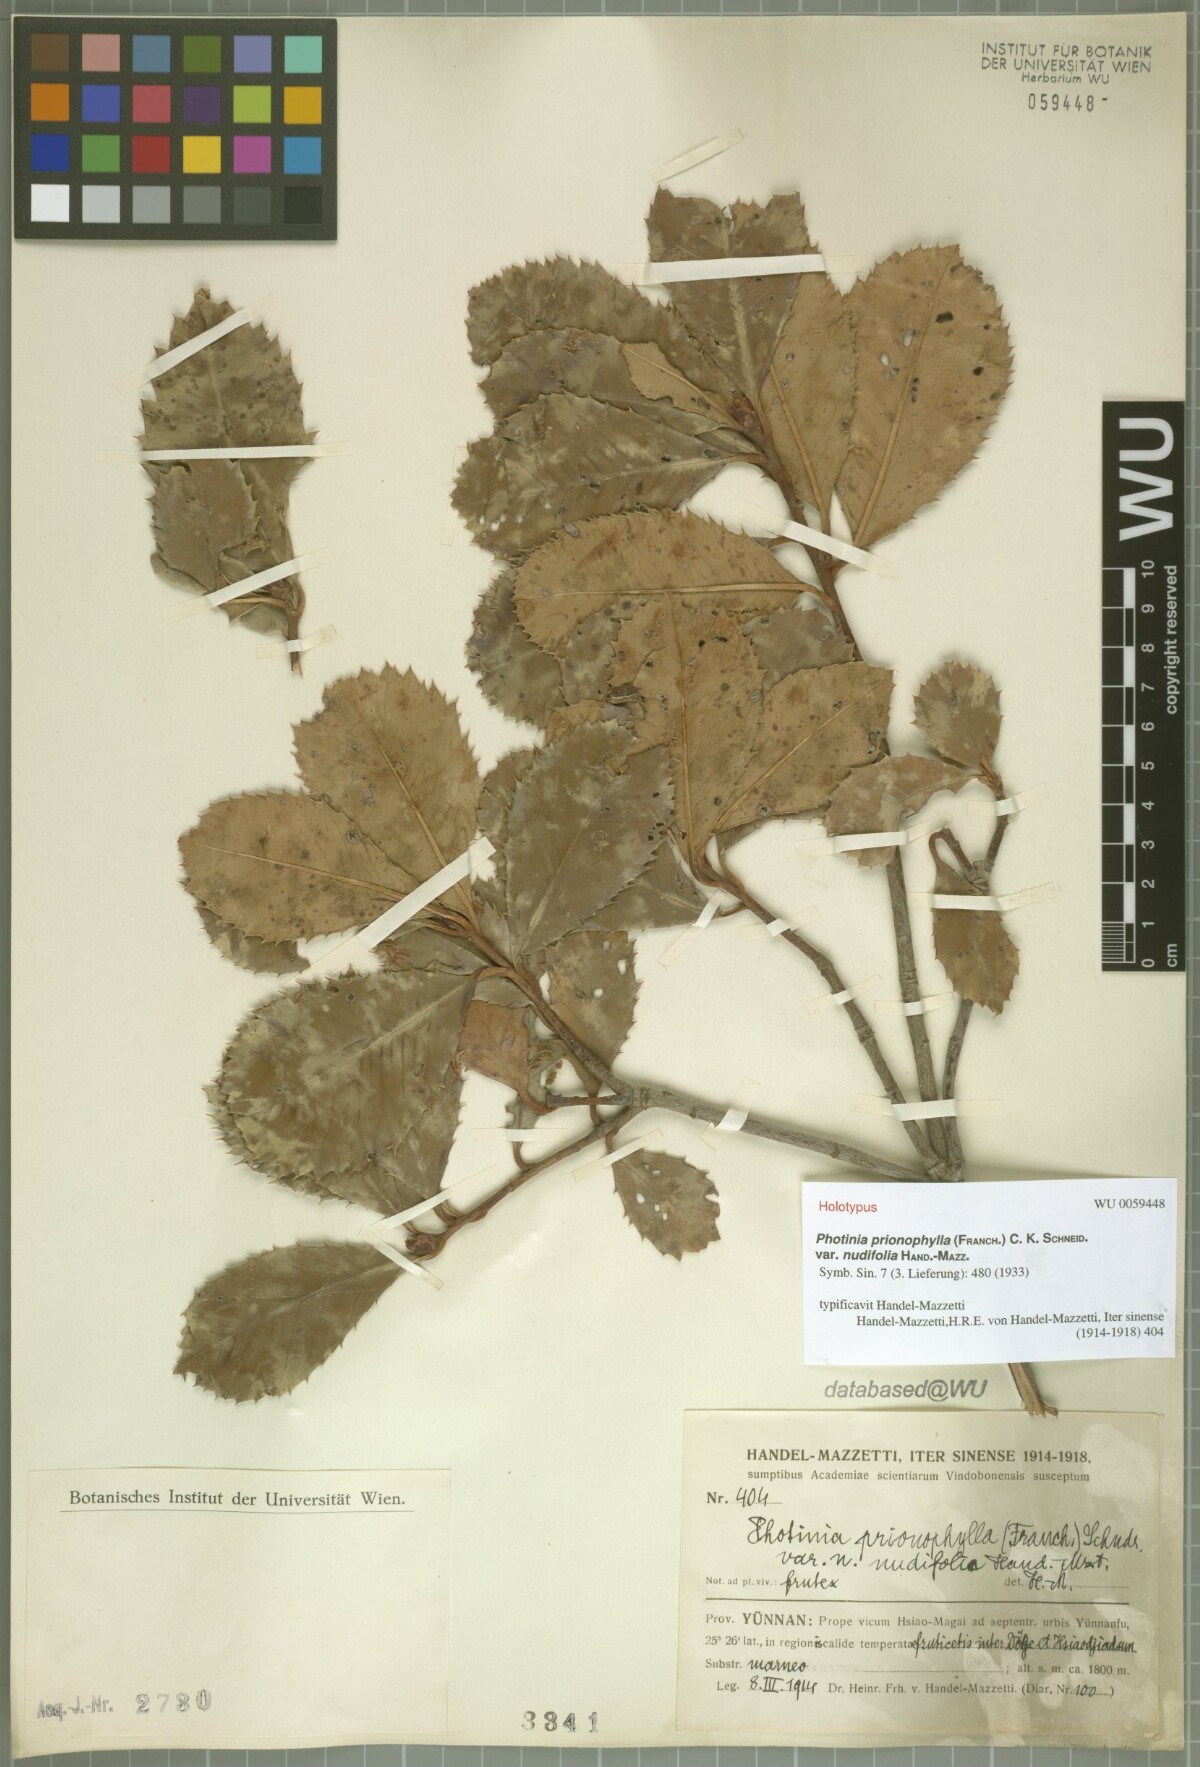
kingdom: Plantae
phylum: Tracheophyta
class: Magnoliopsida
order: Rosales
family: Rosaceae
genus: Photinia
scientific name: Photinia prionophylla
